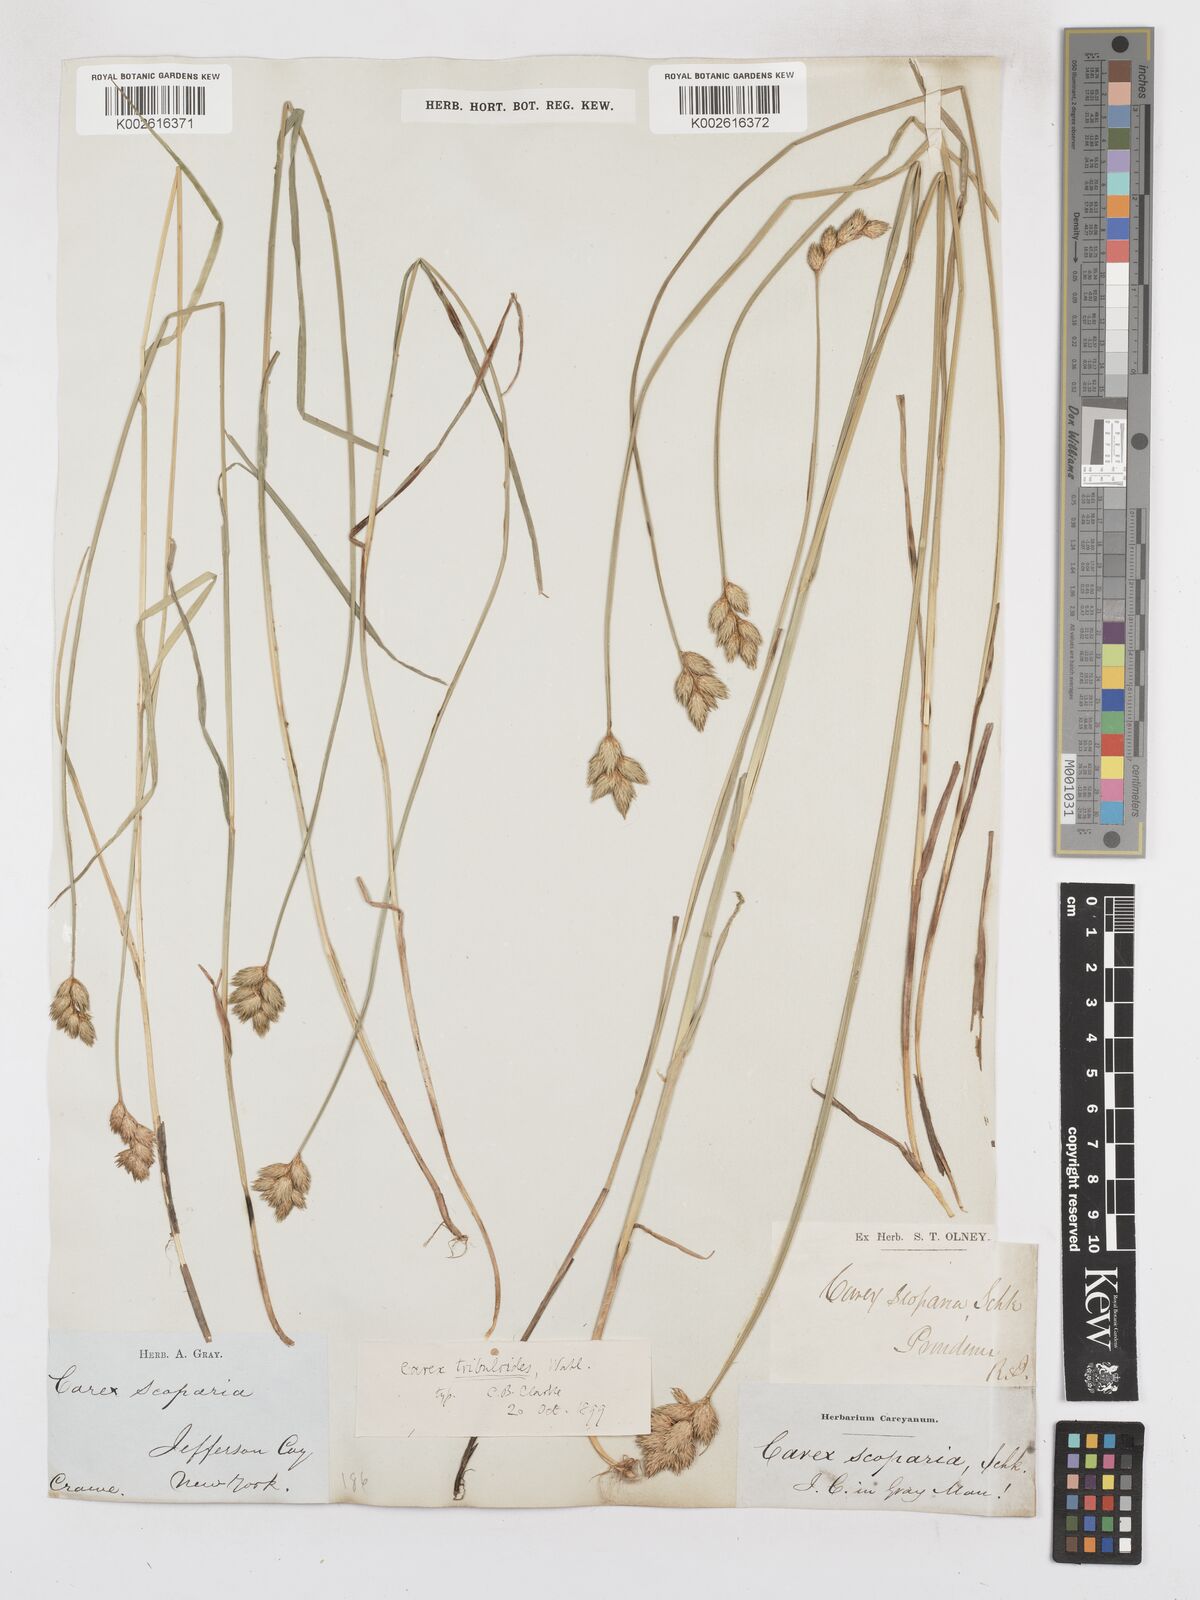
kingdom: Plantae
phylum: Tracheophyta
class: Liliopsida
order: Poales
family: Cyperaceae
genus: Carex
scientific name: Carex tribuloides
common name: Blunt broom sedge
